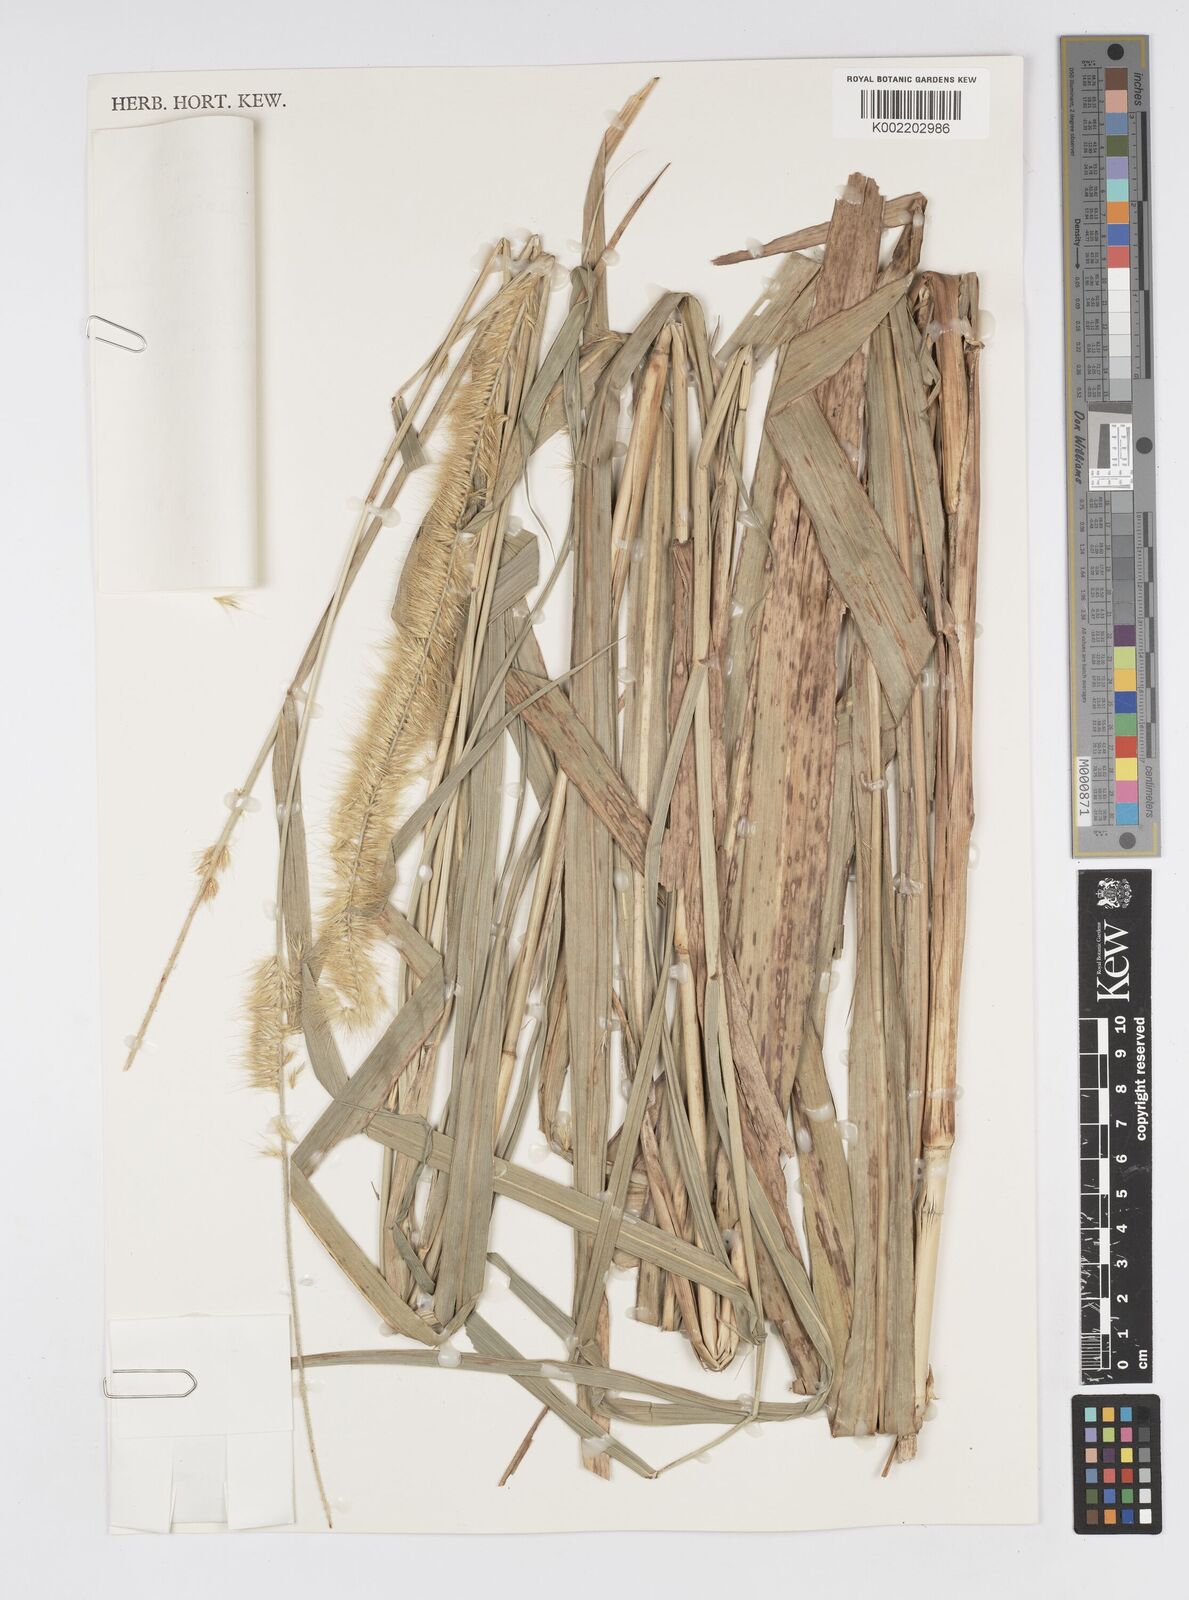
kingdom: Plantae
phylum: Tracheophyta
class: Liliopsida
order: Poales
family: Poaceae
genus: Cenchrus
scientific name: Cenchrus purpureus
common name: Elephant grass
